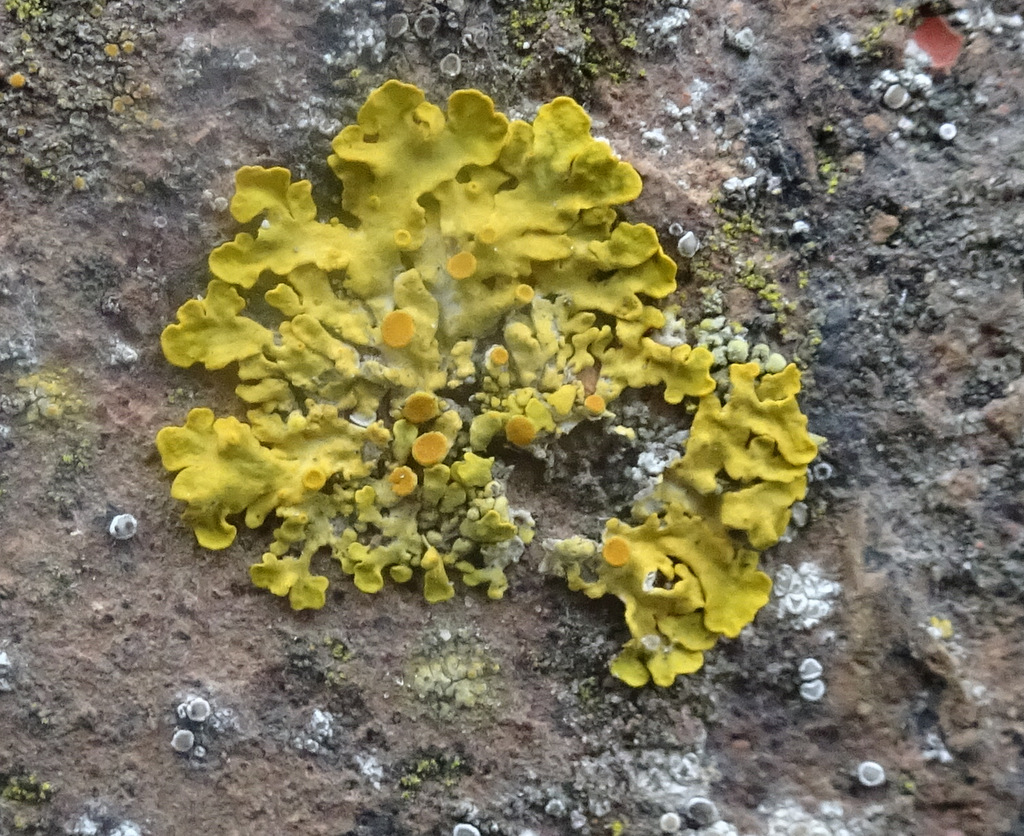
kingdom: Fungi
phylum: Ascomycota
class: Lecanoromycetes
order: Teloschistales
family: Teloschistaceae
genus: Xanthoria
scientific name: Xanthoria parietina
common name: almindelig væggelav
